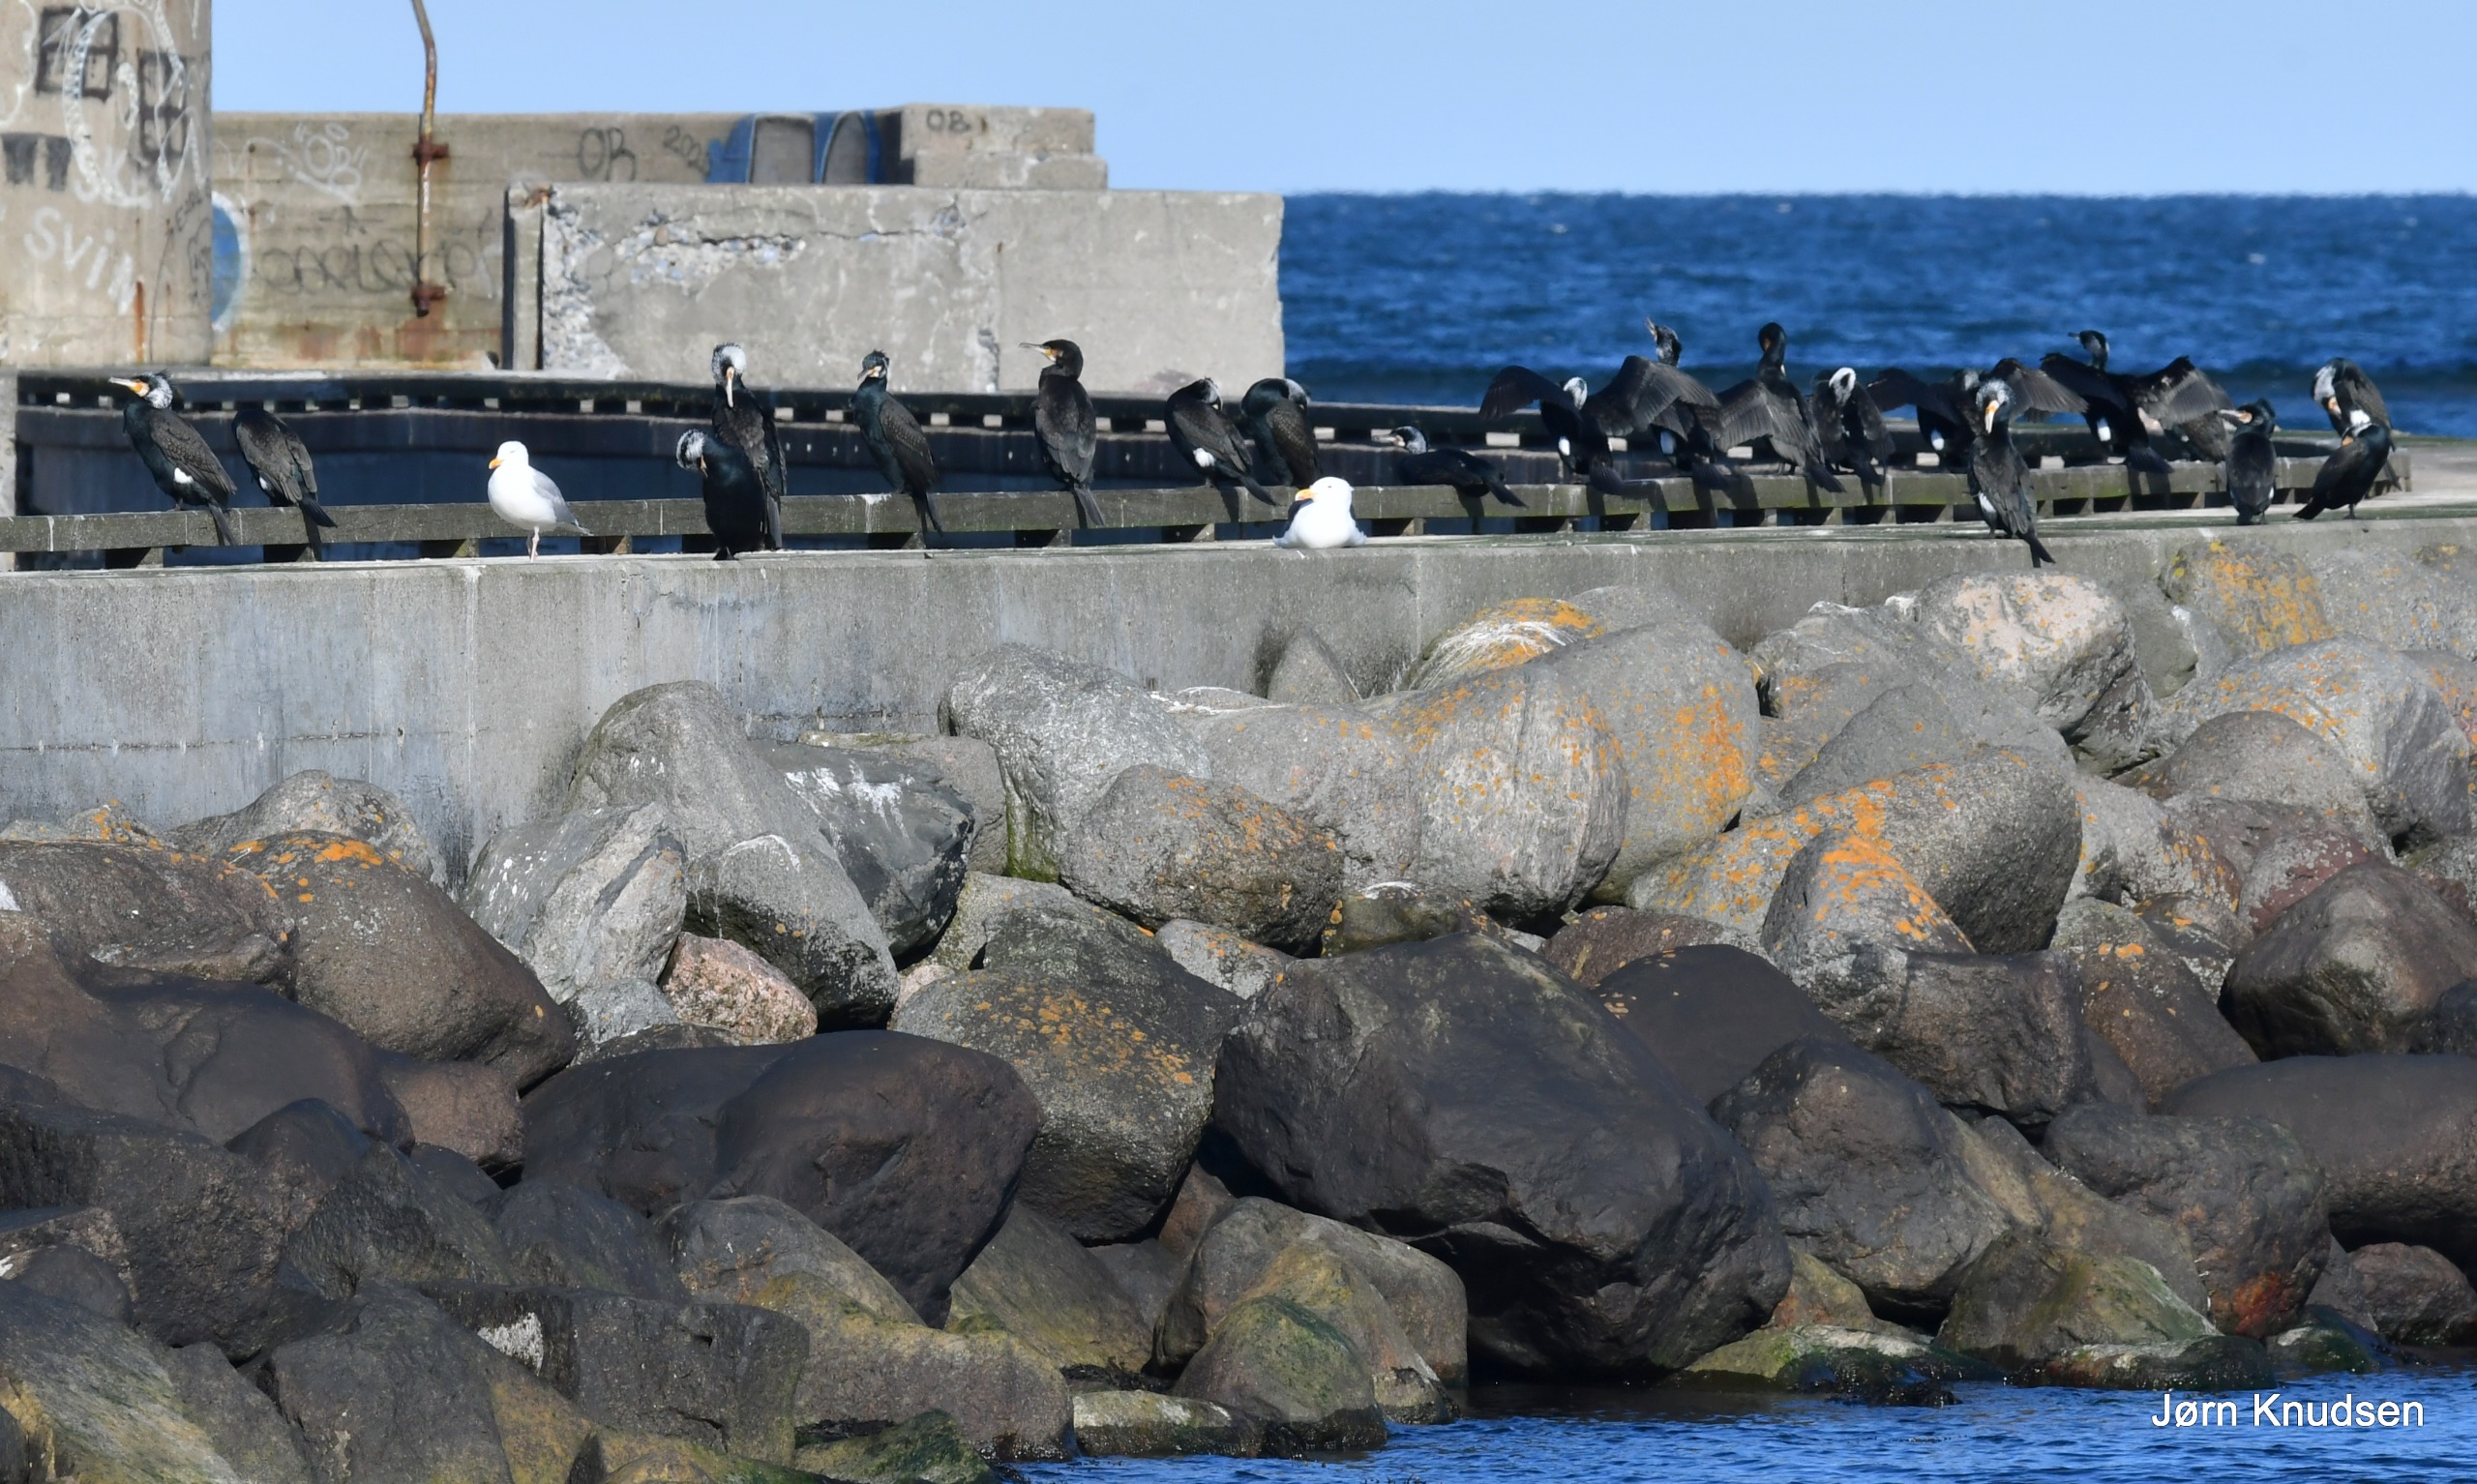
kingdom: Animalia
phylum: Chordata
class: Aves
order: Suliformes
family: Phalacrocoracidae
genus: Phalacrocorax
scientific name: Phalacrocorax carbo
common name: Skarv
